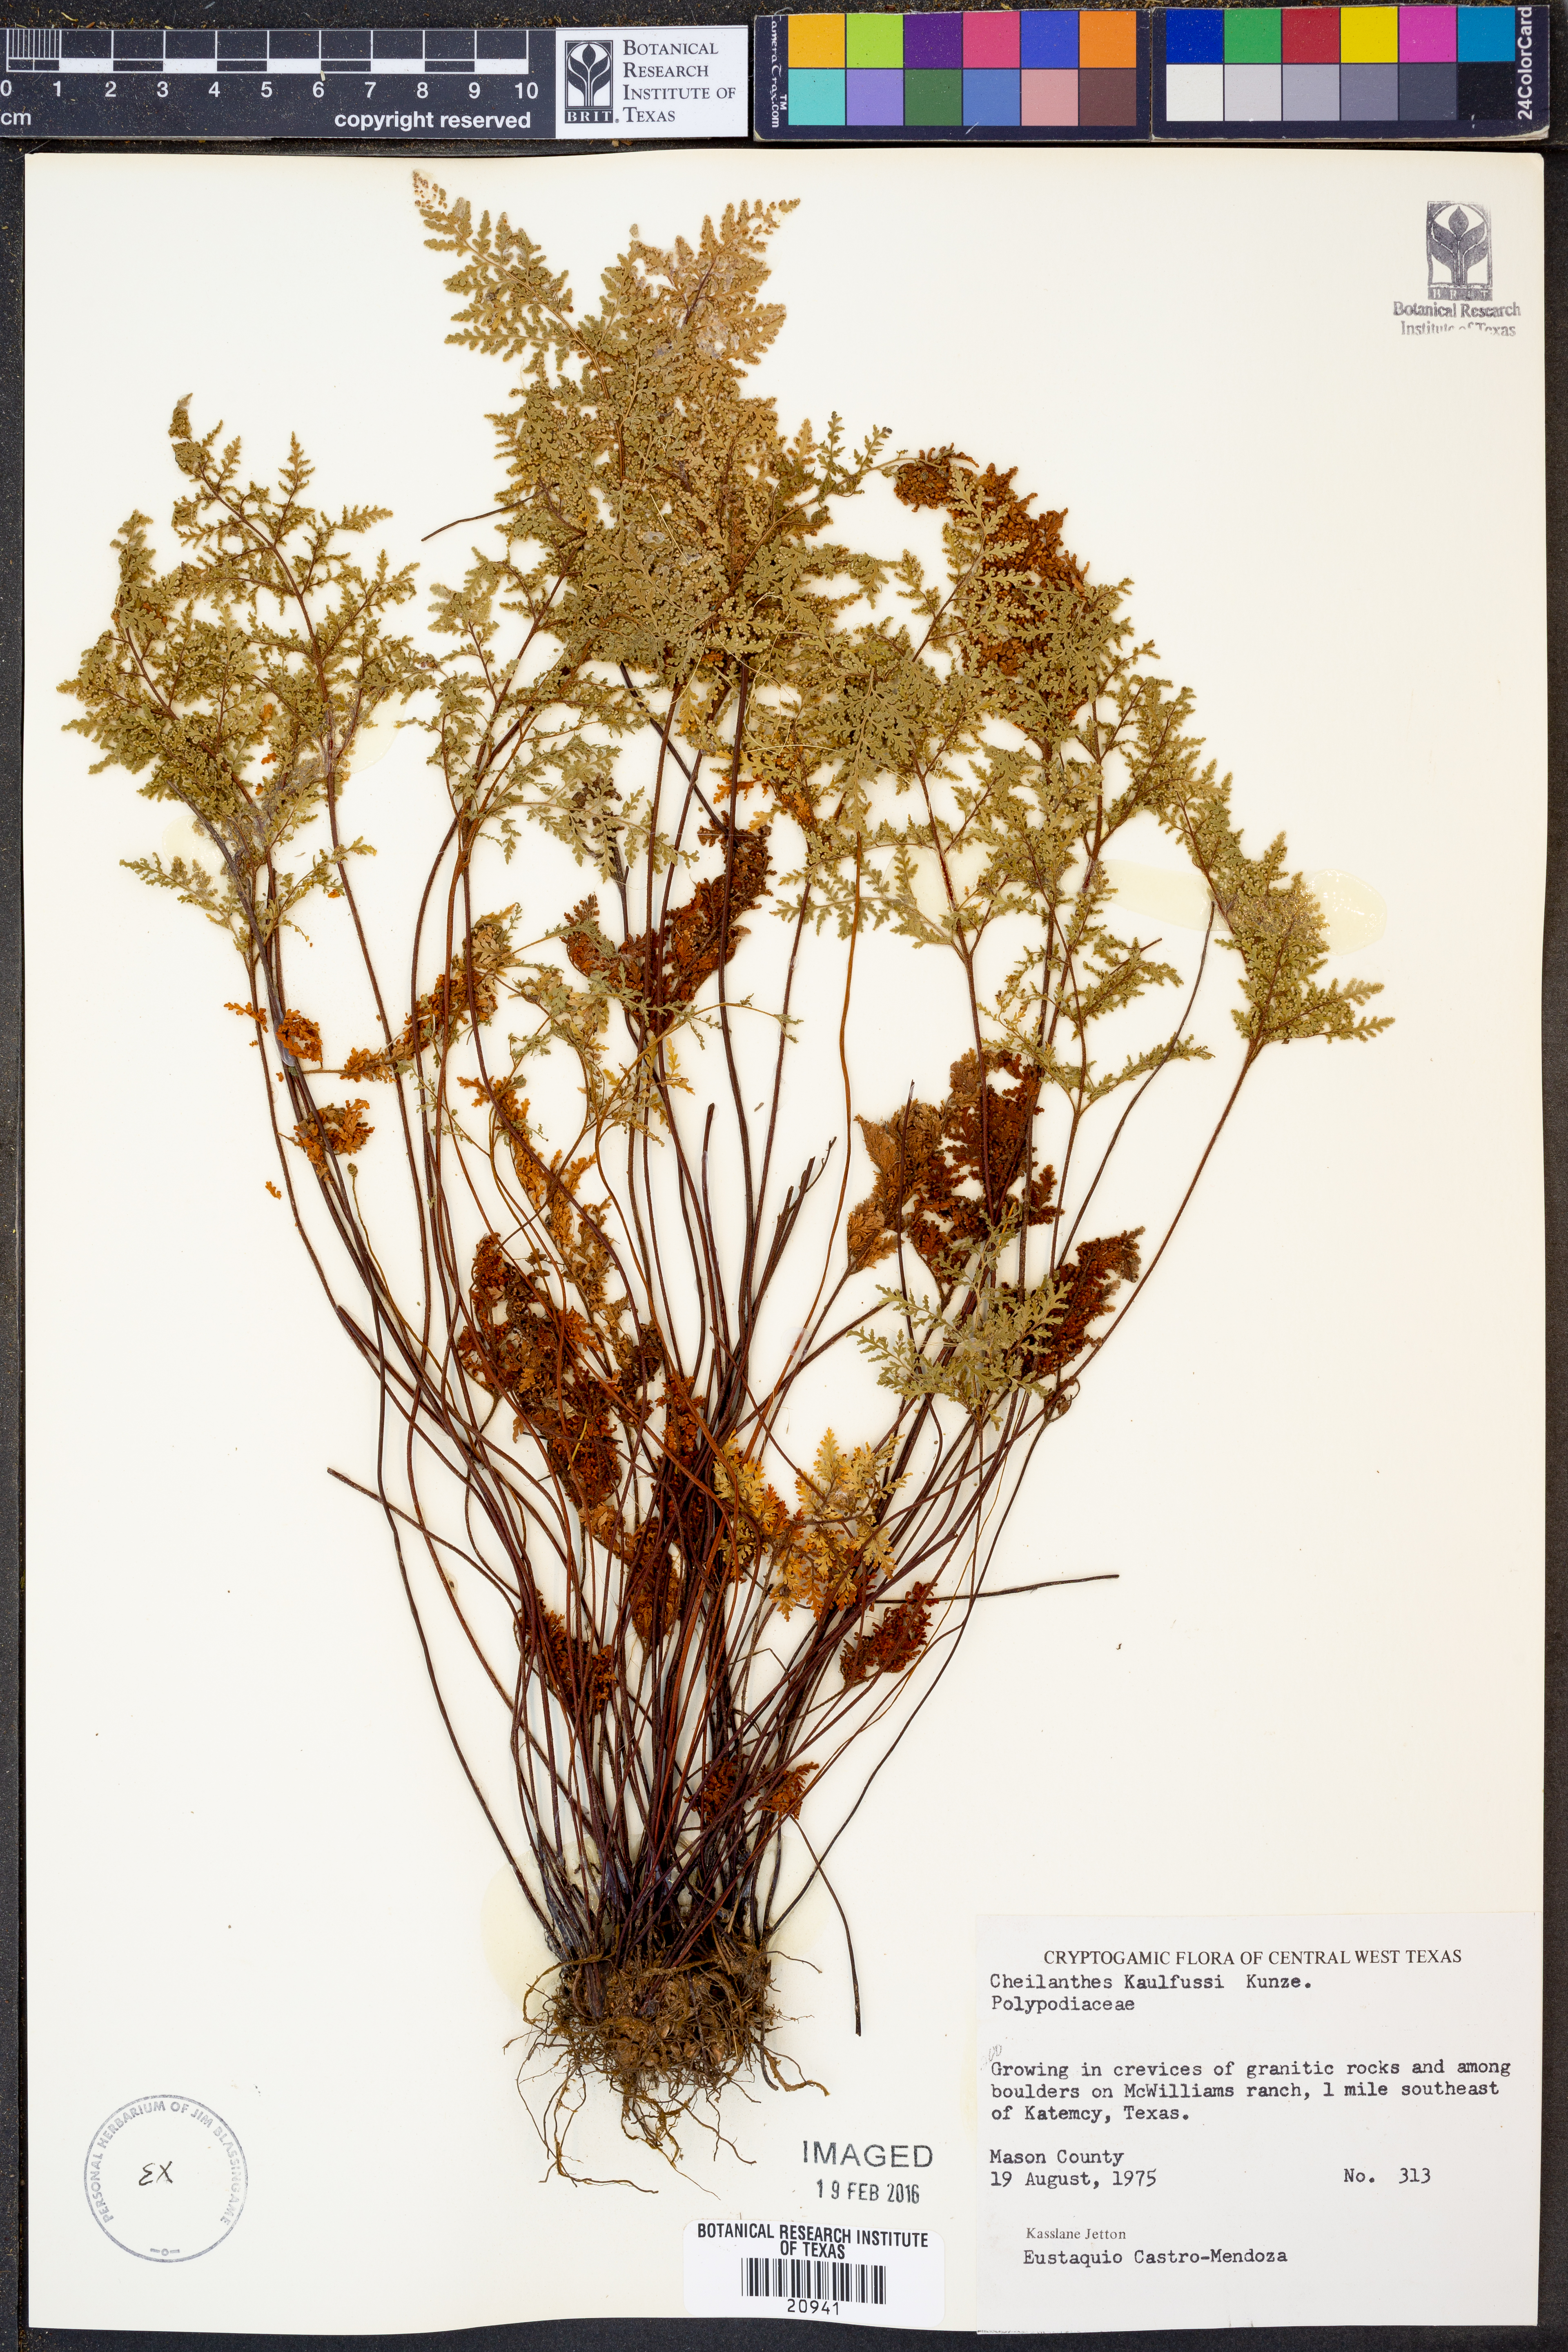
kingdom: Plantae
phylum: Tracheophyta
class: Polypodiopsida
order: Polypodiales
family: Pteridaceae
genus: Gaga
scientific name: Gaga kaulfussii
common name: Glandular lip fern
